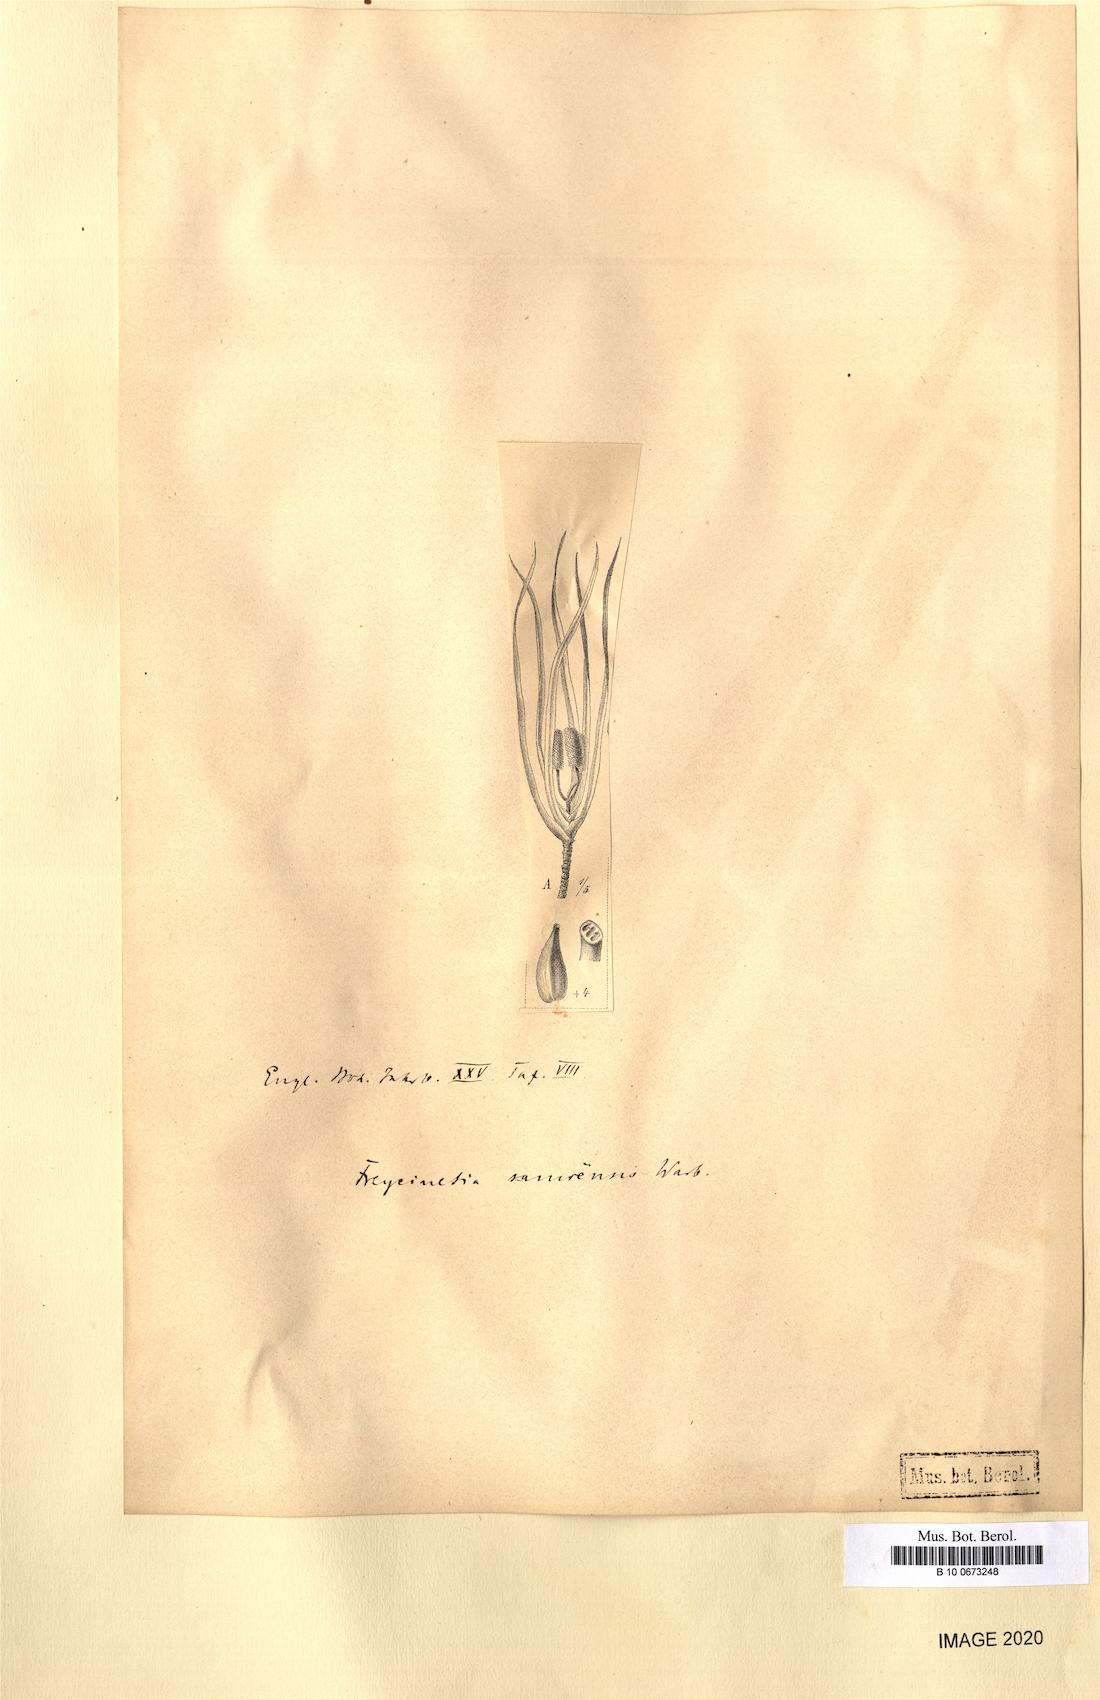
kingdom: Plantae
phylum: Tracheophyta
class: Liliopsida
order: Pandanales
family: Pandanaceae
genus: Freycinetia
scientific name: Freycinetia storckii
